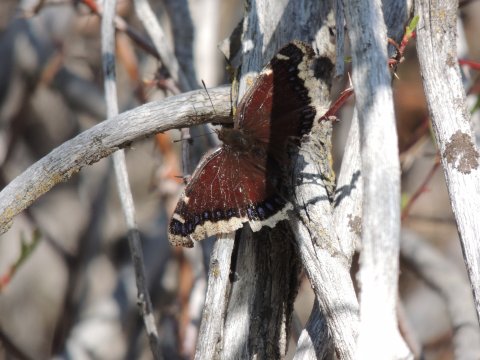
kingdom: Animalia
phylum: Arthropoda
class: Insecta
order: Lepidoptera
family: Nymphalidae
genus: Nymphalis
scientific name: Nymphalis antiopa
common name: Mourning Cloak
